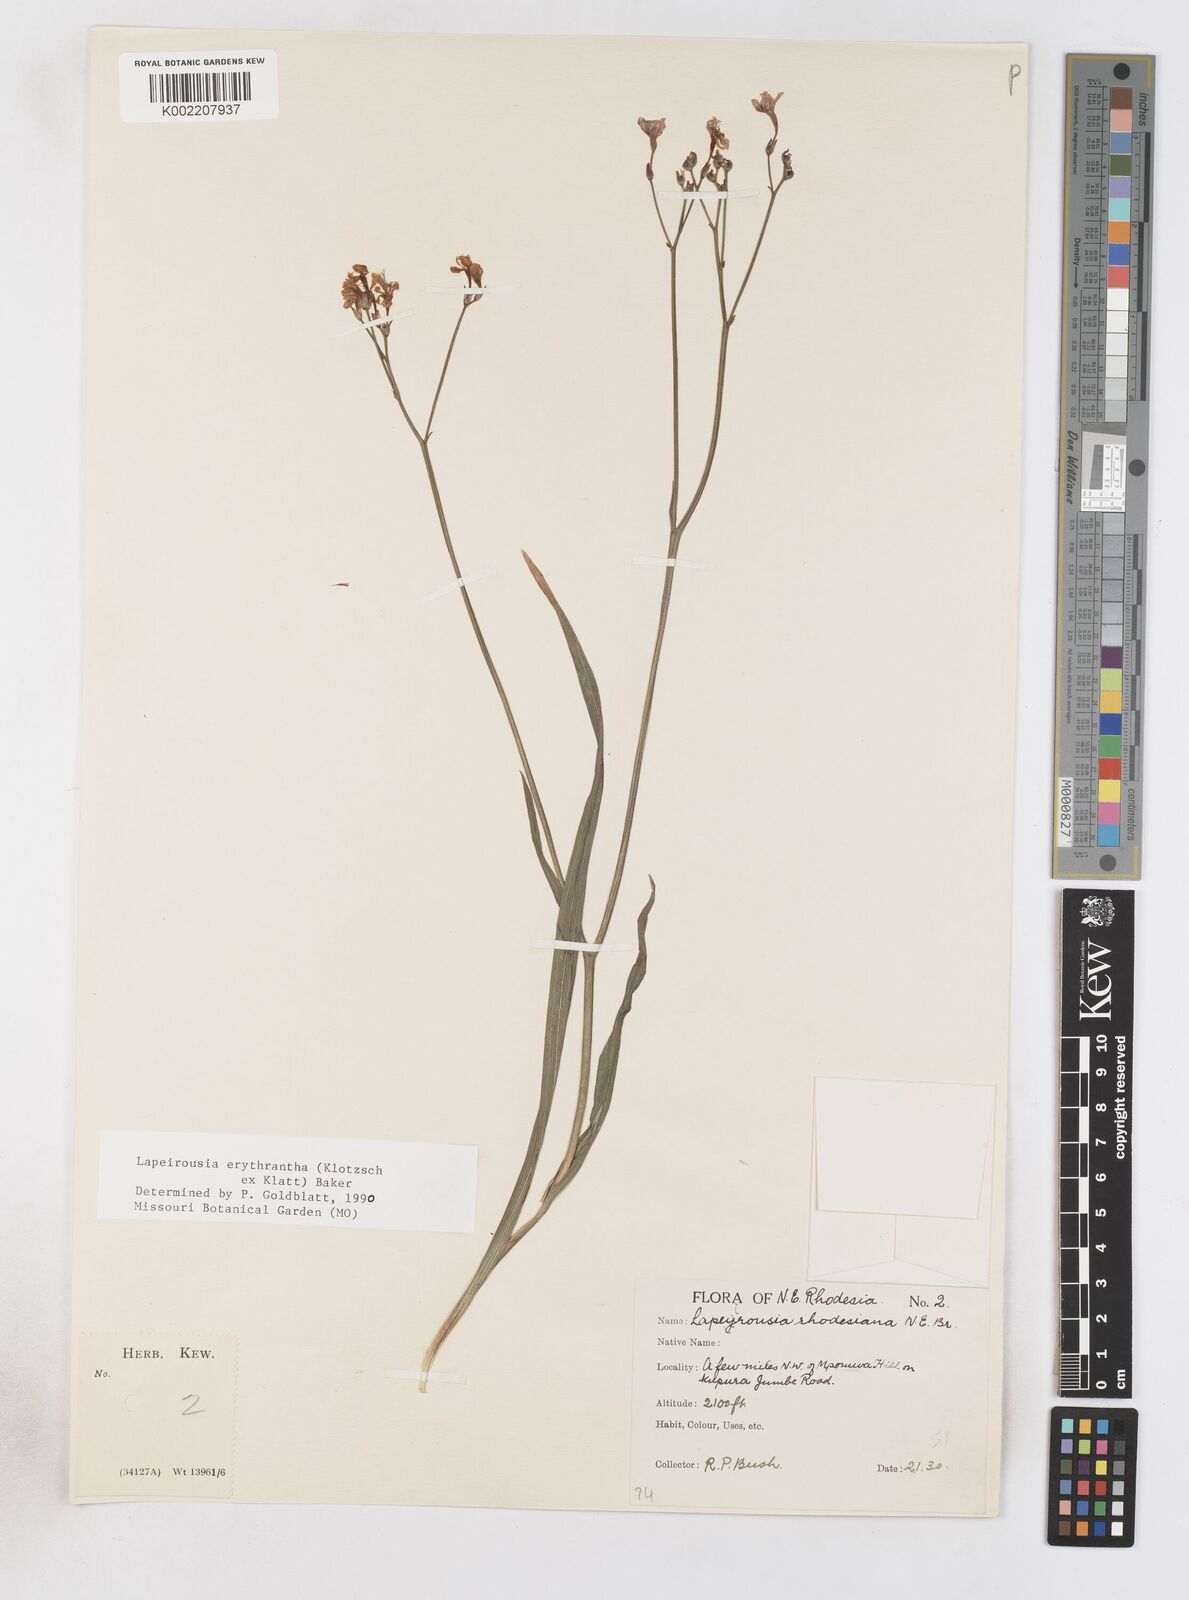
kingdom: Plantae
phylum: Tracheophyta
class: Liliopsida
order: Asparagales
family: Iridaceae
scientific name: Iridaceae
